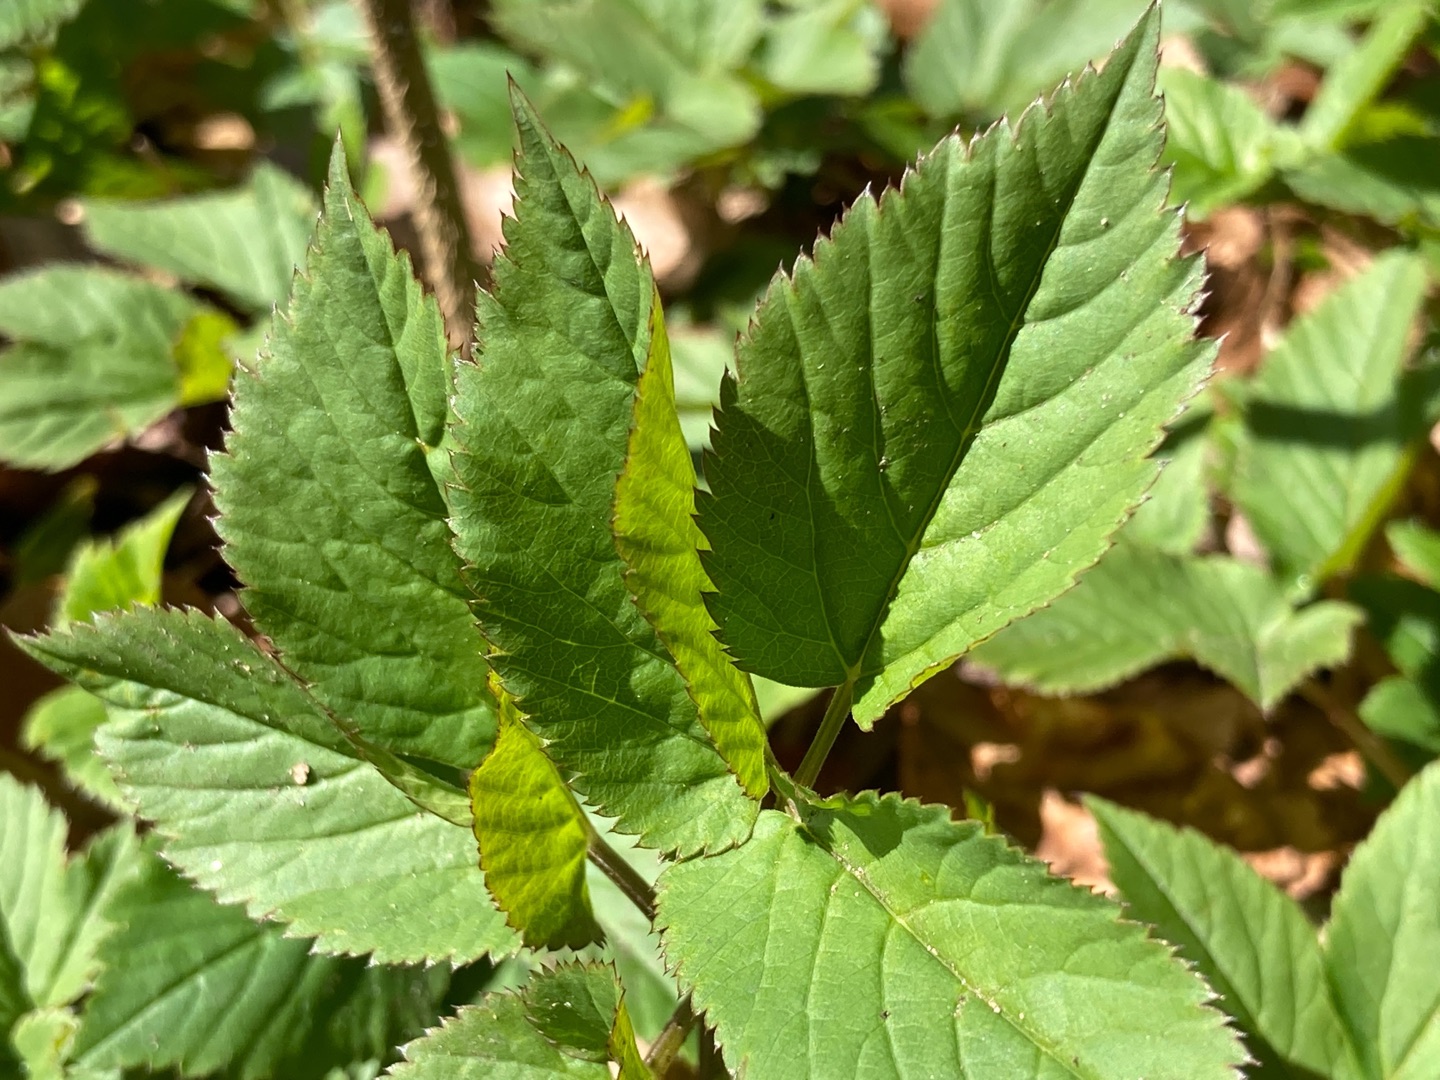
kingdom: Plantae
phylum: Tracheophyta
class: Magnoliopsida
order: Apiales
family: Apiaceae
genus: Aegopodium
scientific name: Aegopodium podagraria
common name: Skvalderkål
